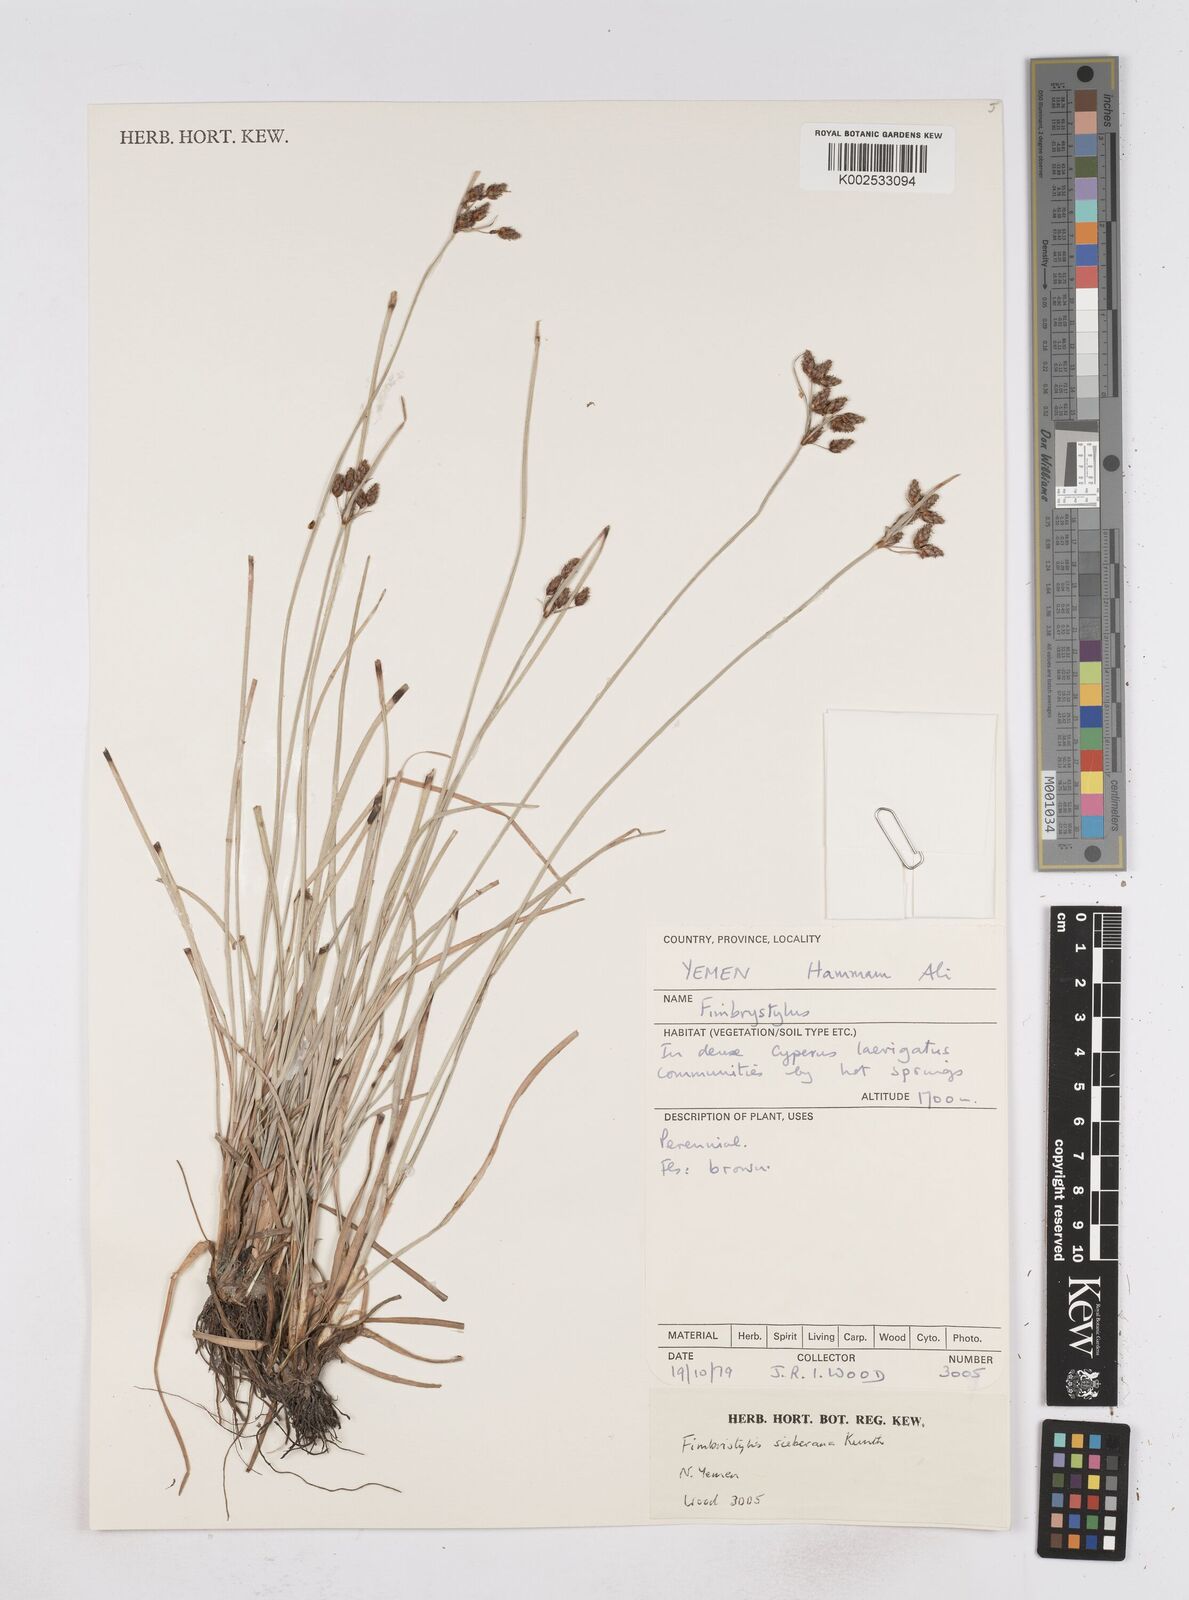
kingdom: Plantae
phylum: Tracheophyta
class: Liliopsida
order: Poales
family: Cyperaceae
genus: Fimbristylis
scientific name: Fimbristylis ferruginea
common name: West indian fimbry
